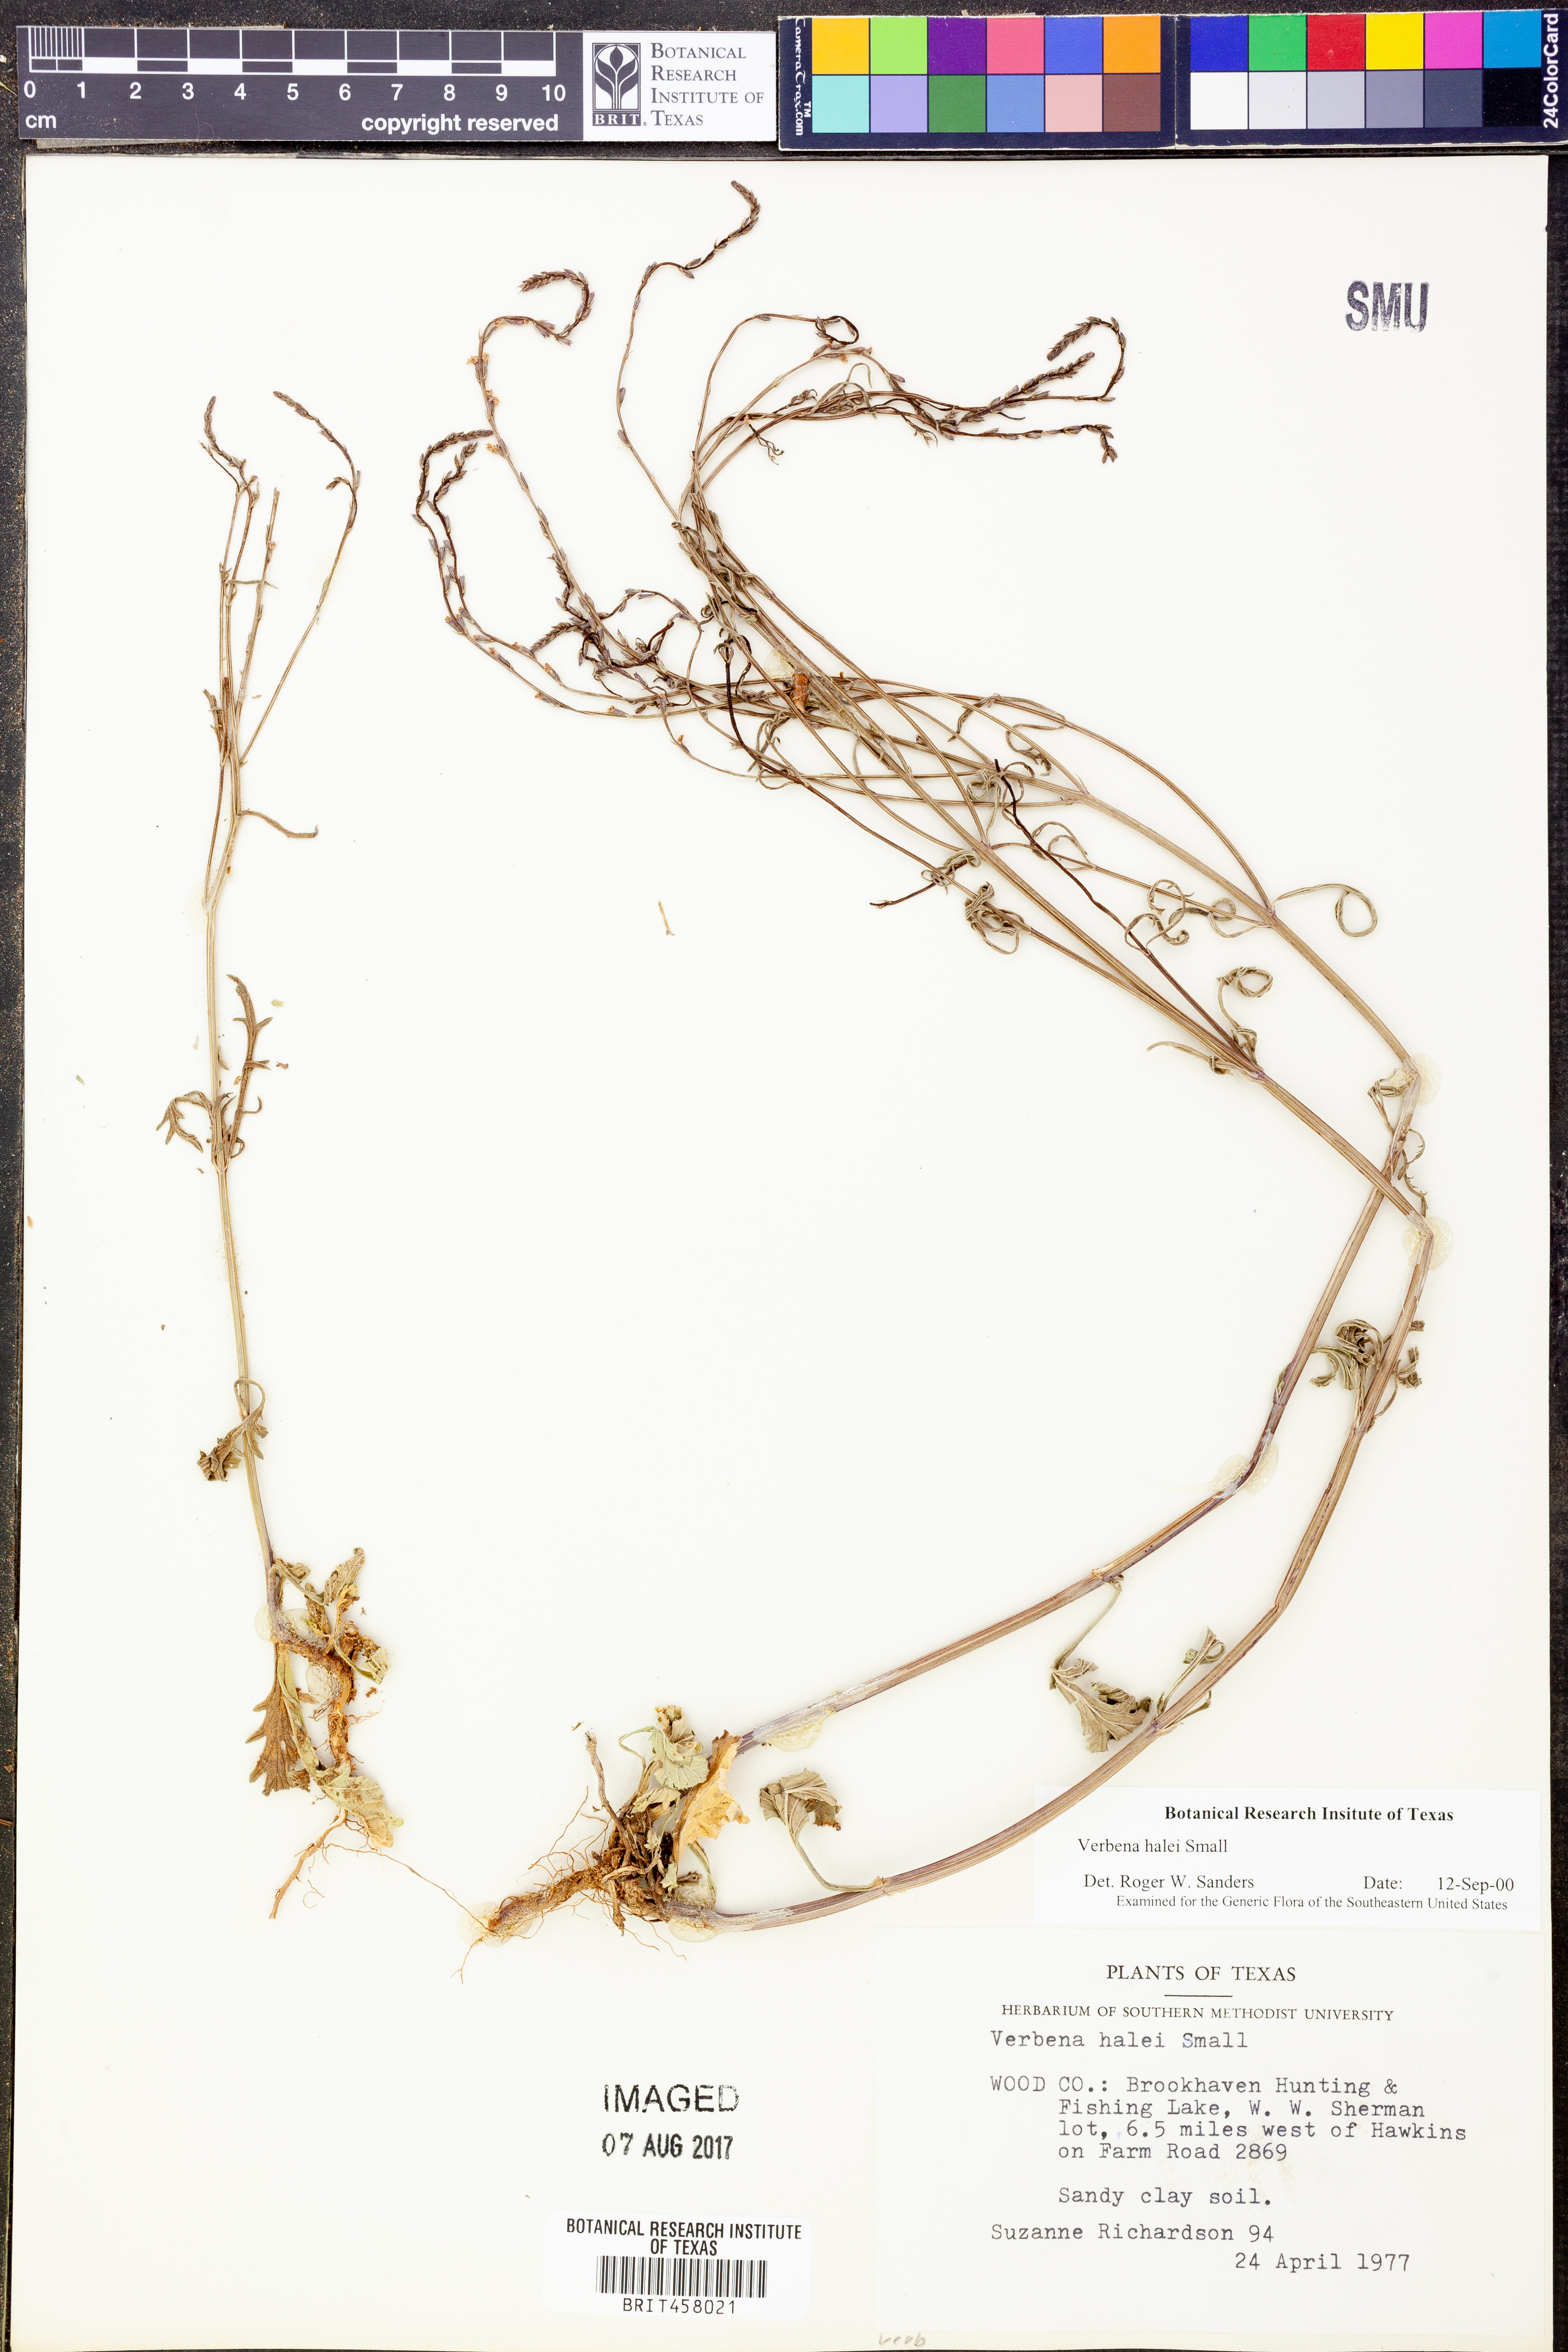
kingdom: Plantae
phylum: Tracheophyta
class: Magnoliopsida
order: Lamiales
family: Verbenaceae
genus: Verbena
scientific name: Verbena halei
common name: Texas vervain
